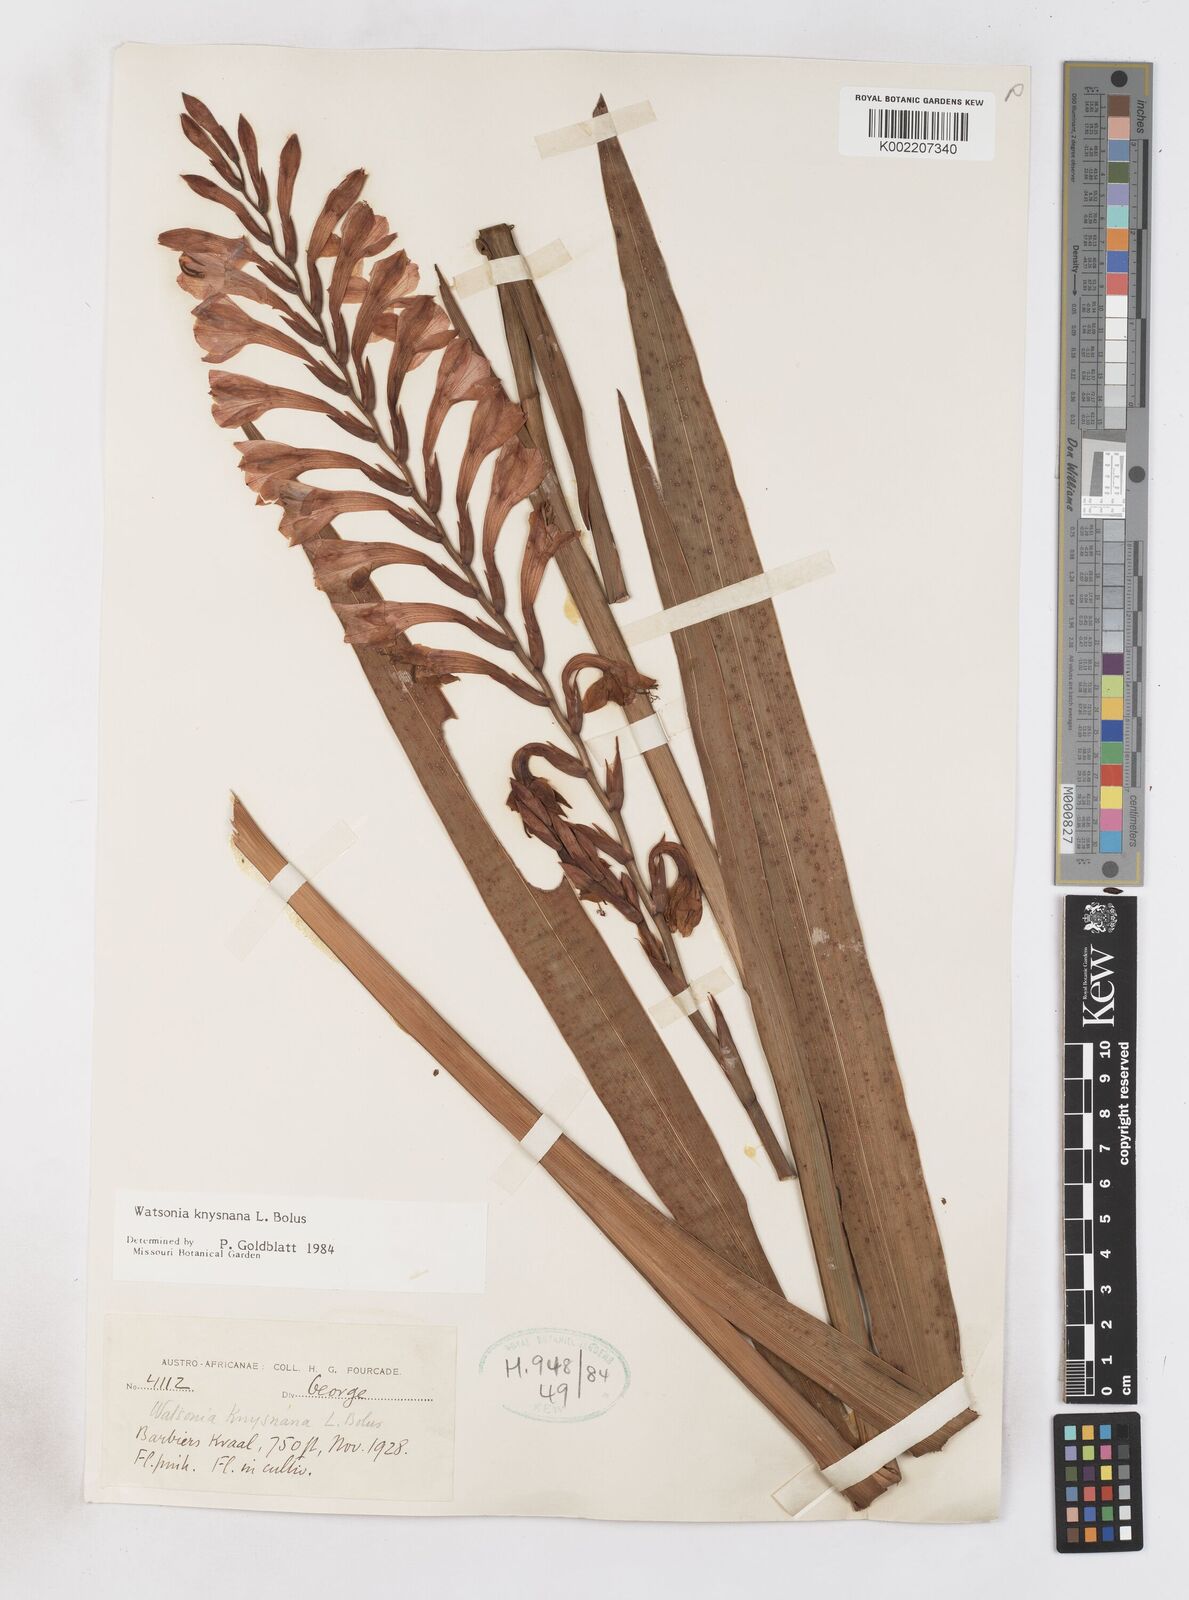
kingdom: Plantae
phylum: Tracheophyta
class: Liliopsida
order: Asparagales
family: Iridaceae
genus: Watsonia
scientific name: Watsonia knysnana
